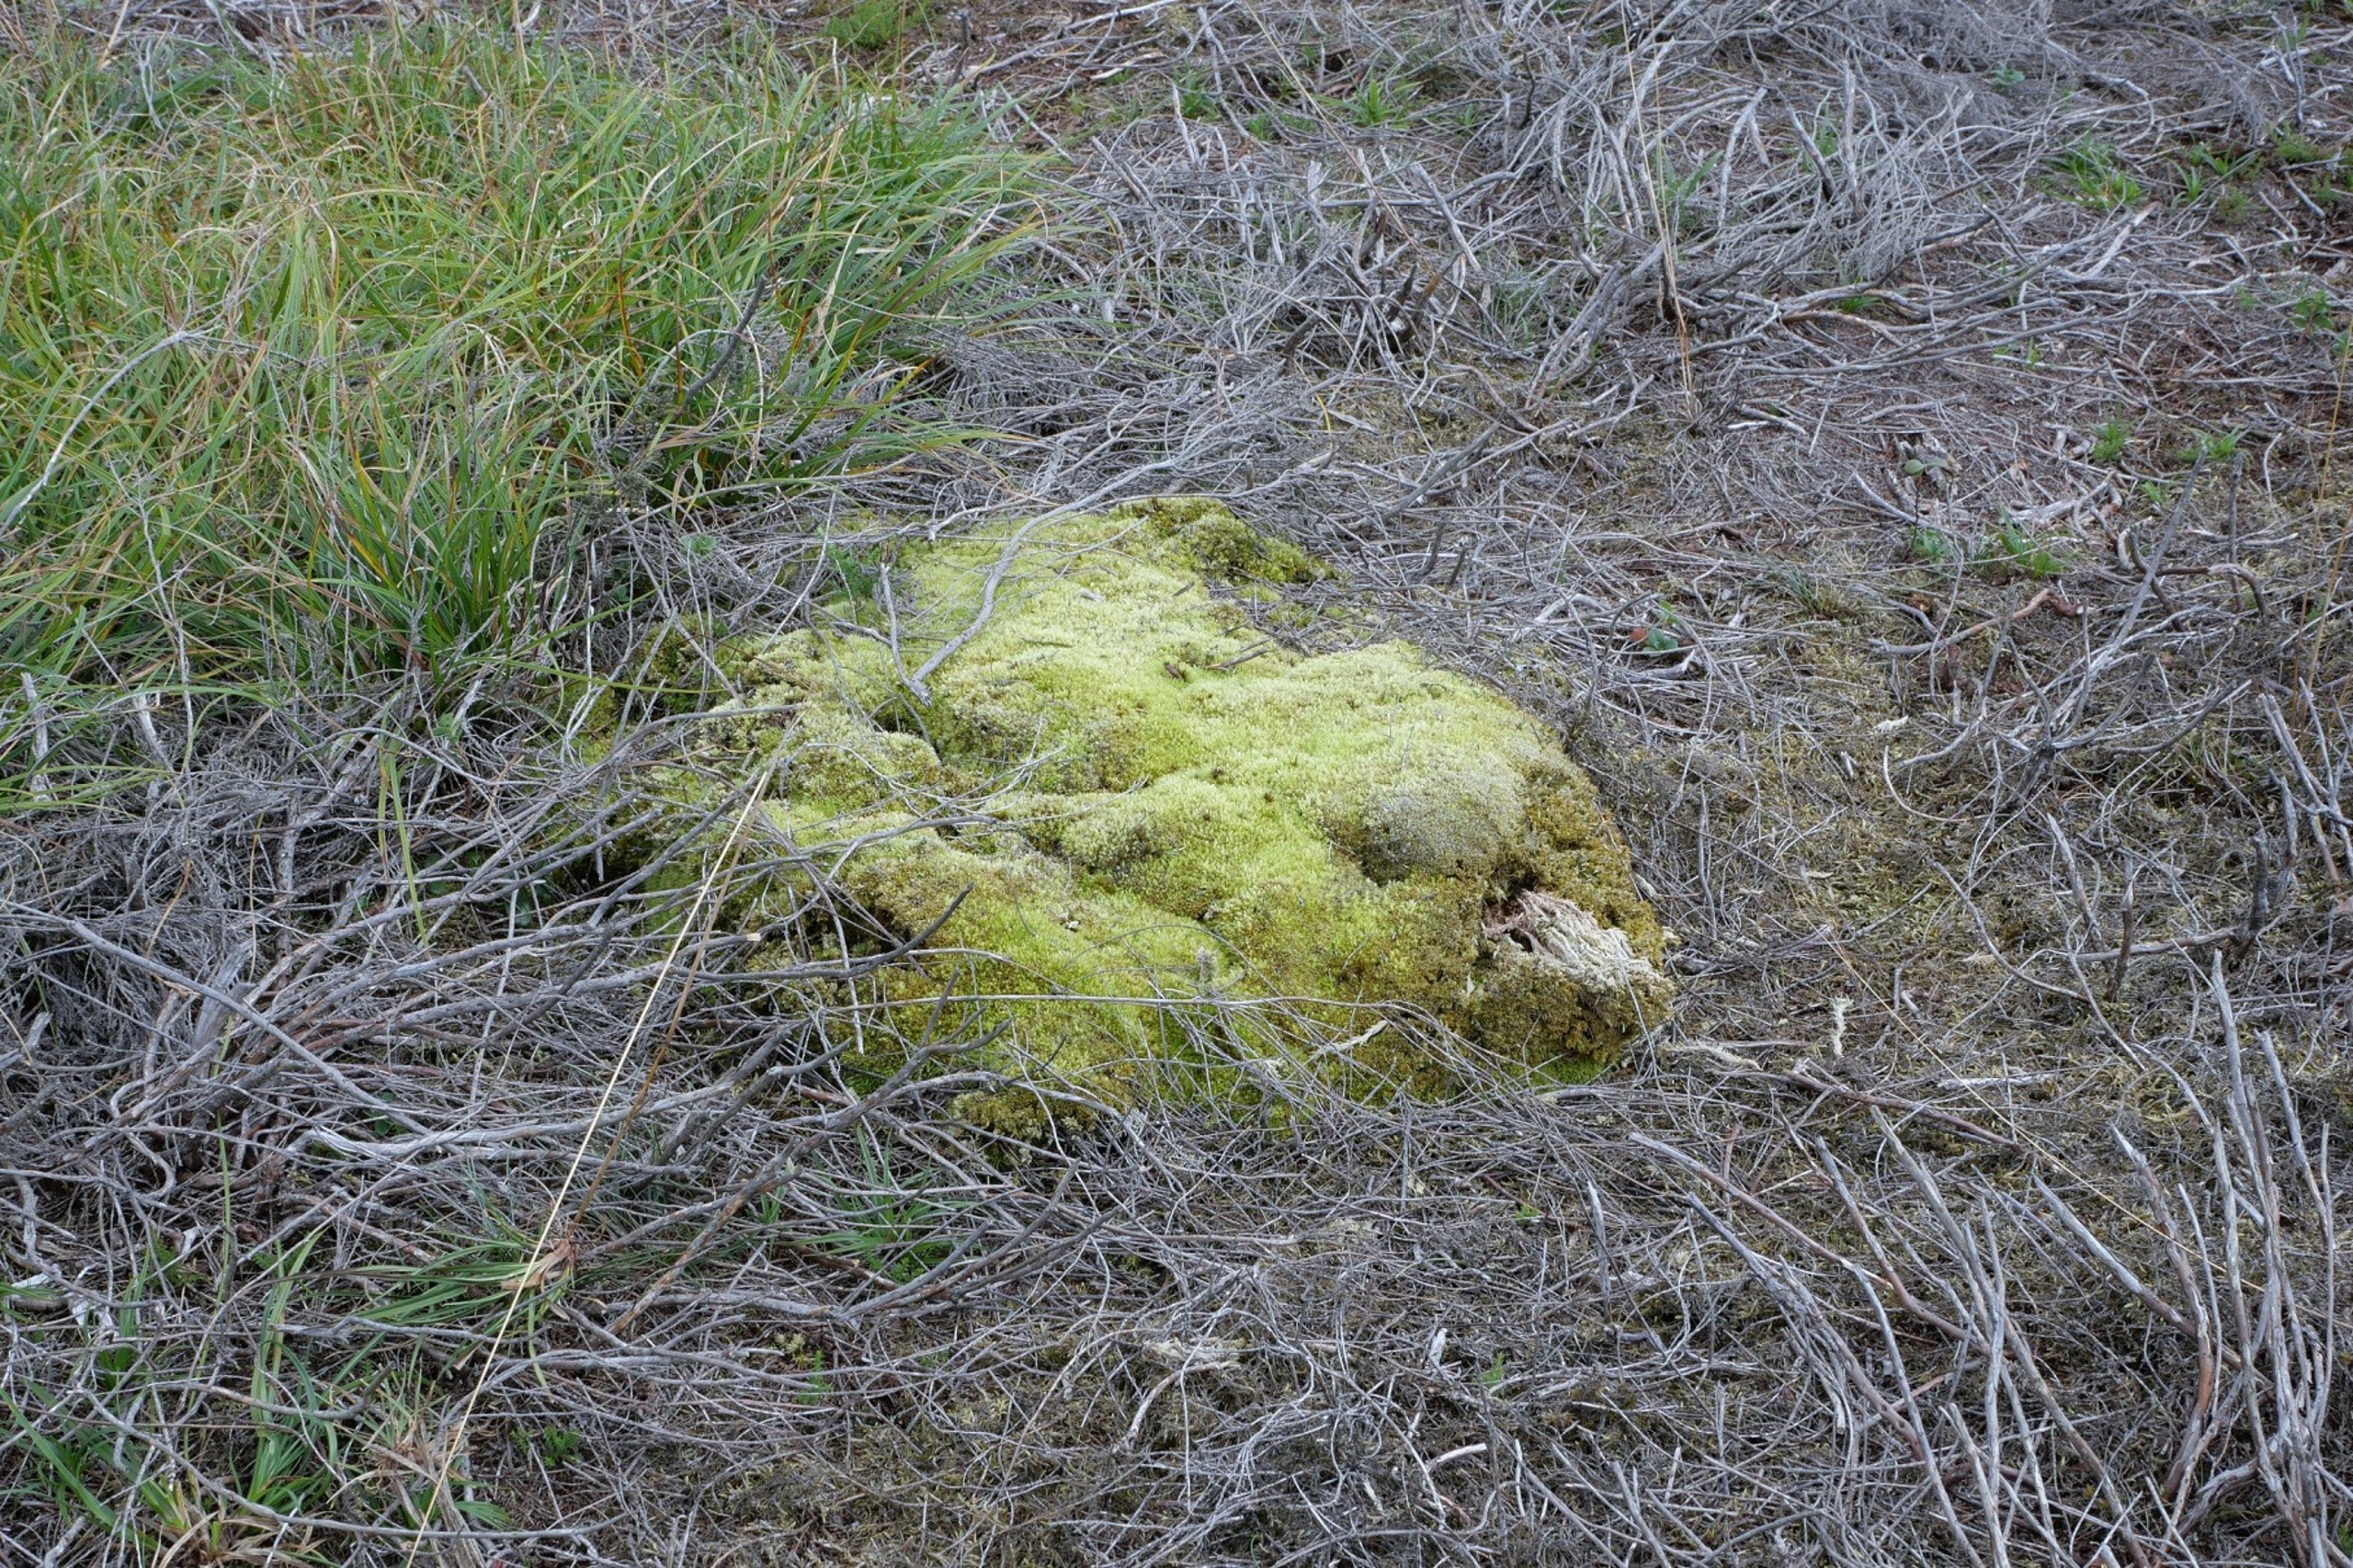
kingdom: Plantae
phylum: Bryophyta
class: Bryopsida
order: Dicranales
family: Leucobryaceae
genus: Leucobryum
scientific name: Leucobryum glaucum
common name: Almindelig hvidmos
